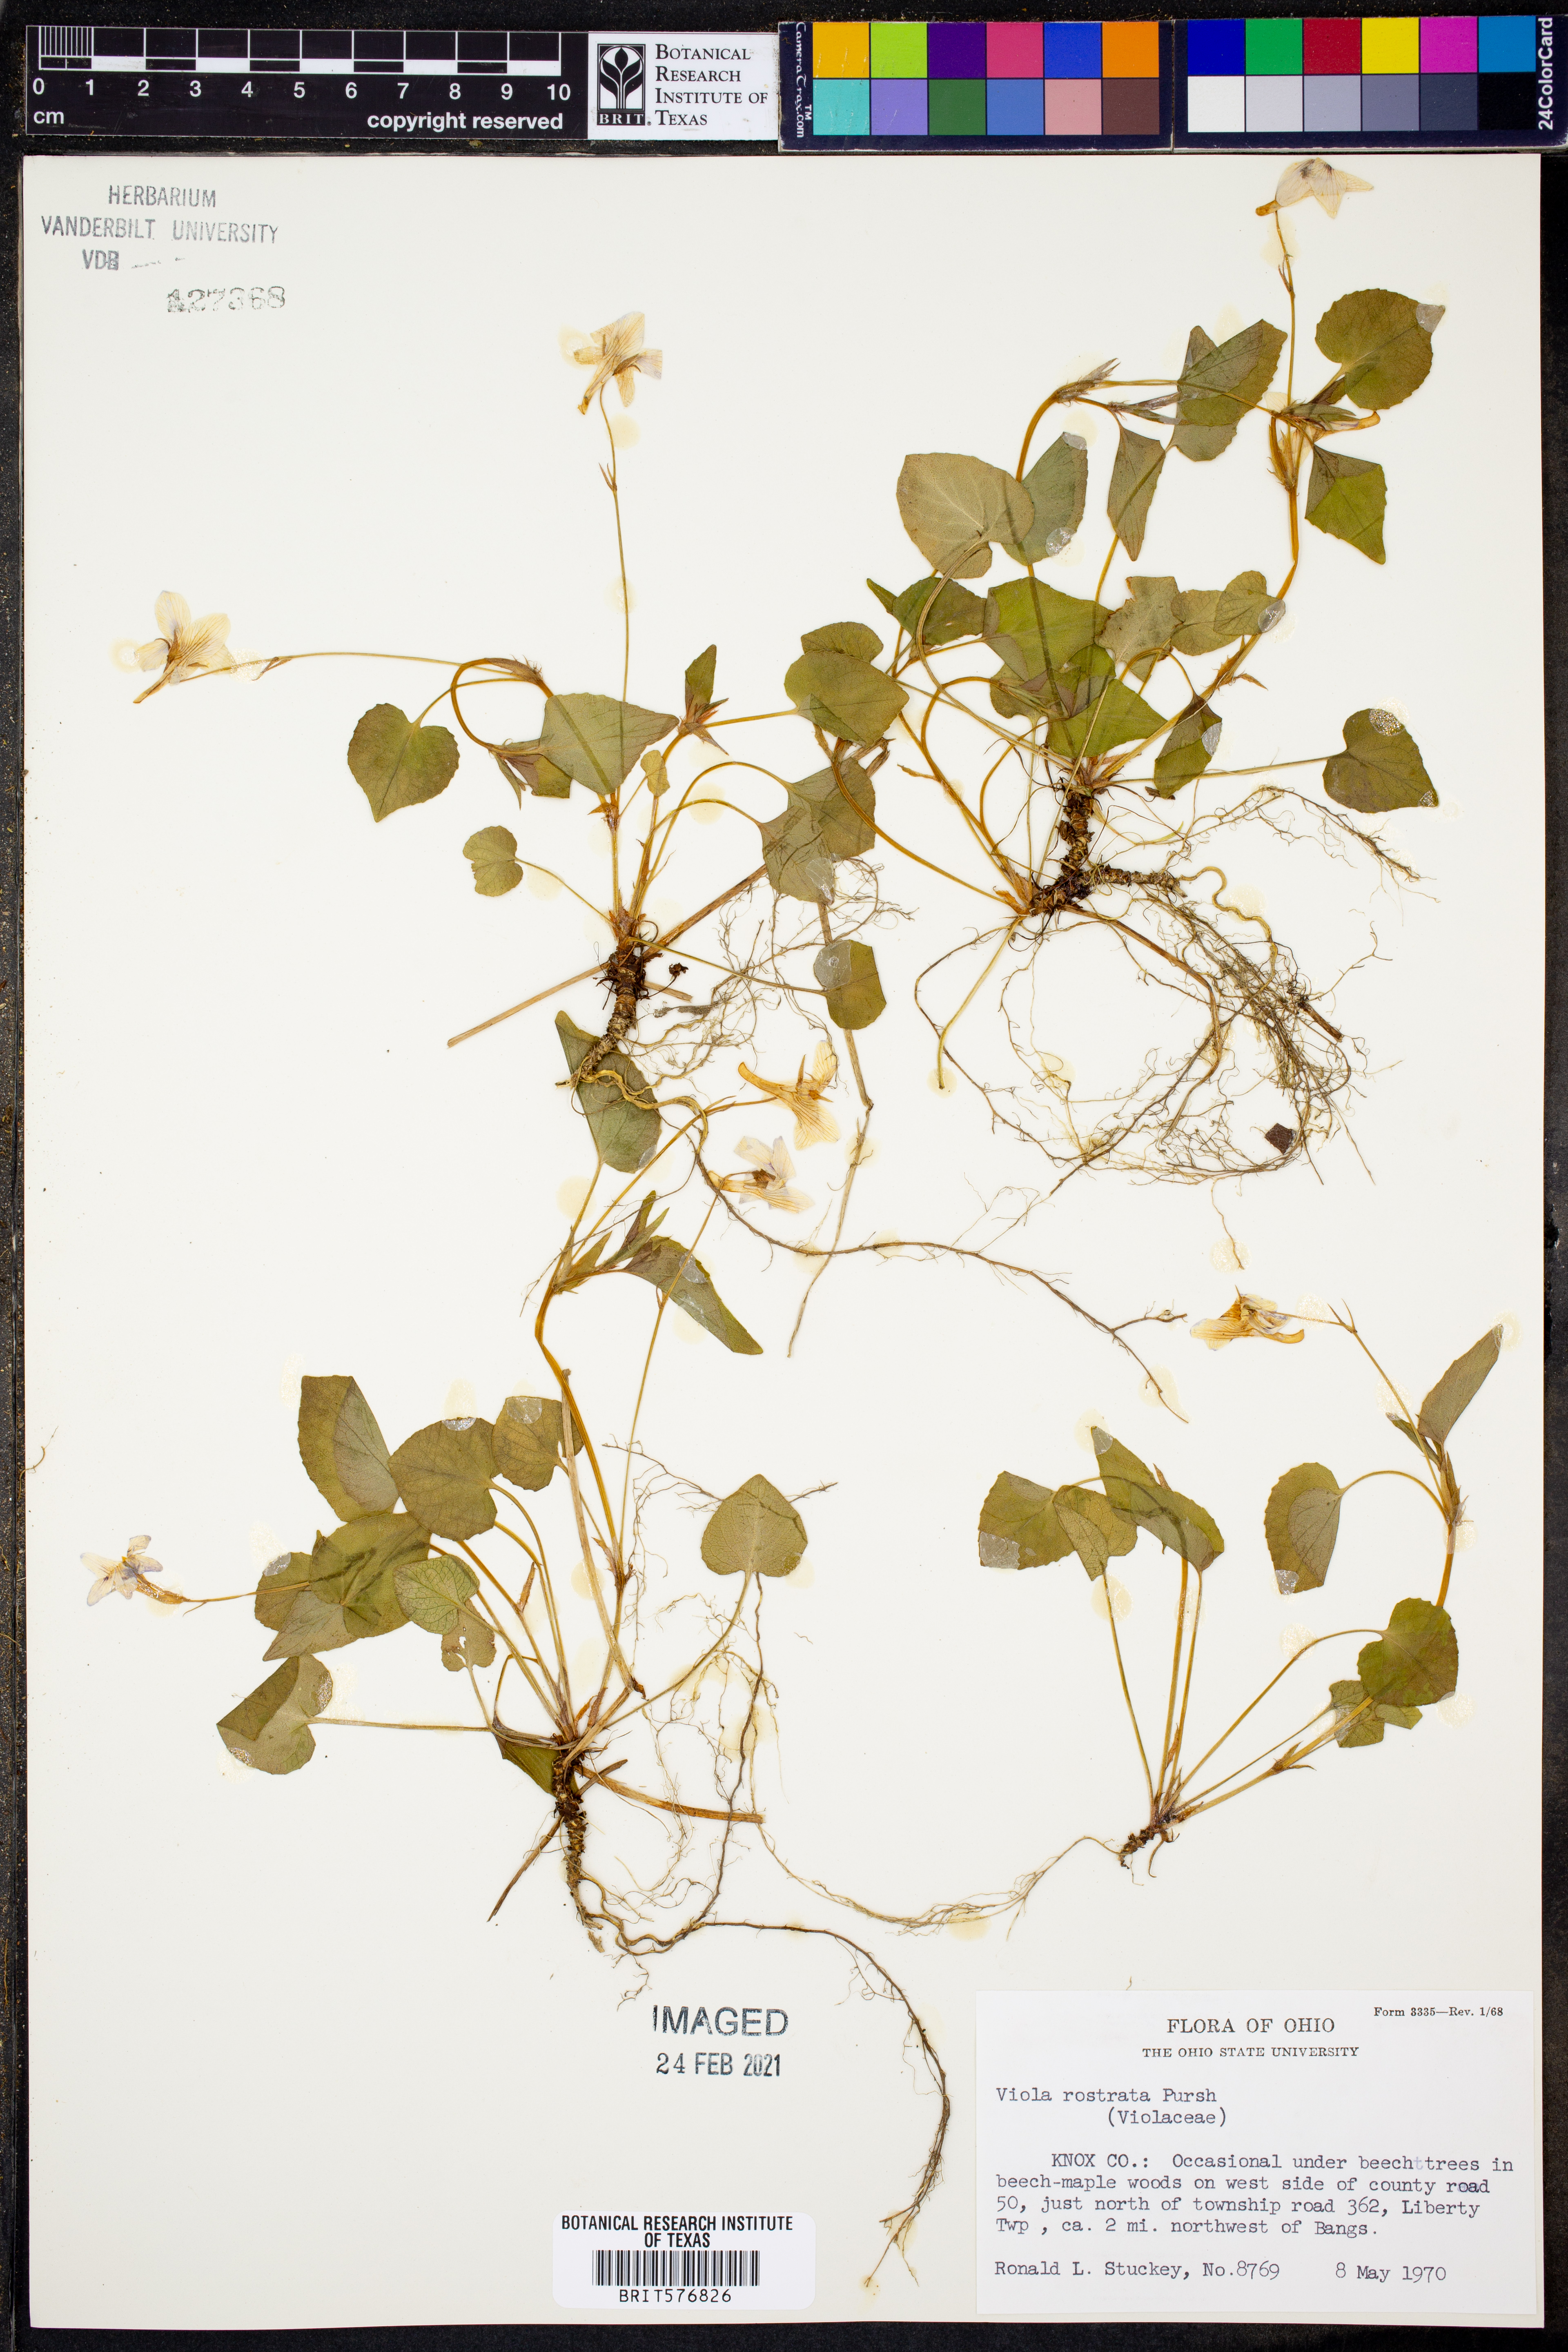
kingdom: Plantae
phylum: Tracheophyta
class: Magnoliopsida
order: Malpighiales
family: Violaceae
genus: Viola
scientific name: Viola rostrata
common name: Long-spur violet
